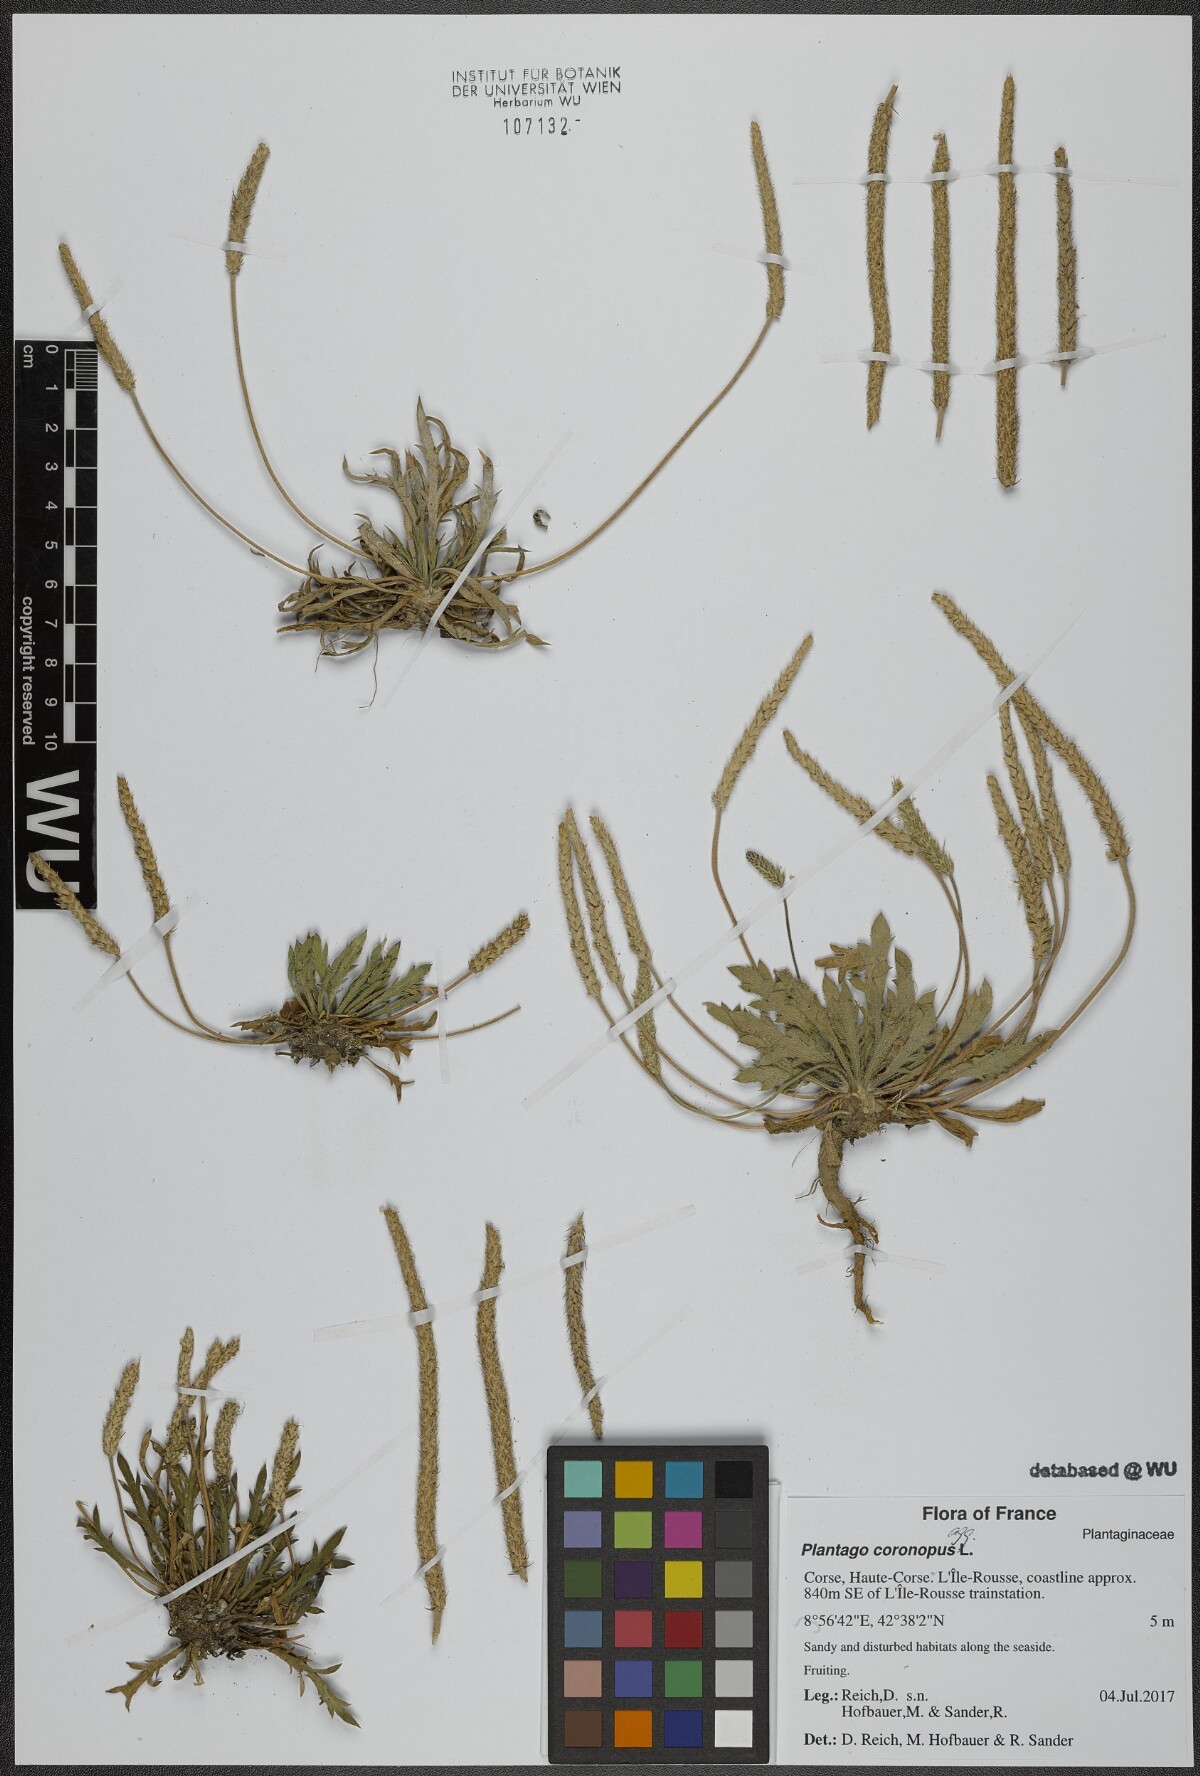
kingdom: Plantae
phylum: Tracheophyta
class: Magnoliopsida
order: Lamiales
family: Plantaginaceae
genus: Plantago
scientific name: Plantago coronopus
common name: Buck's-horn plantain
